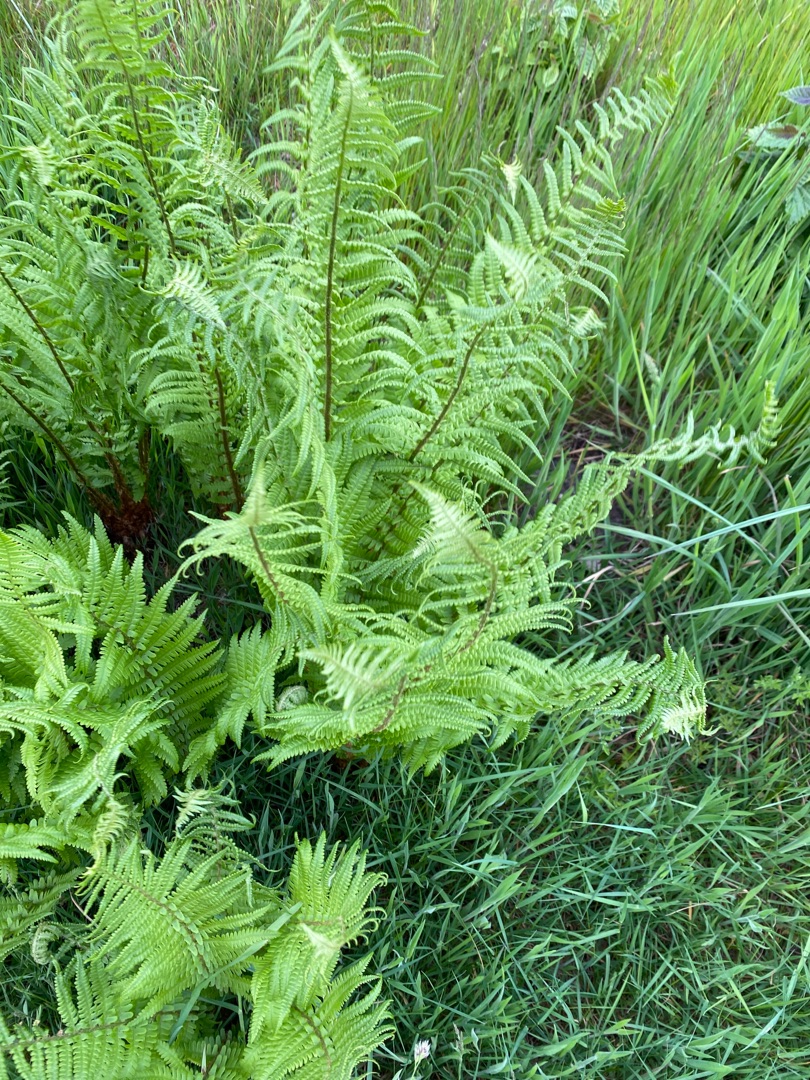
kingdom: Plantae
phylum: Tracheophyta
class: Polypodiopsida
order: Polypodiales
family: Dryopteridaceae
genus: Dryopteris
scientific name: Dryopteris filix-mas
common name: Almindelig mangeløv
